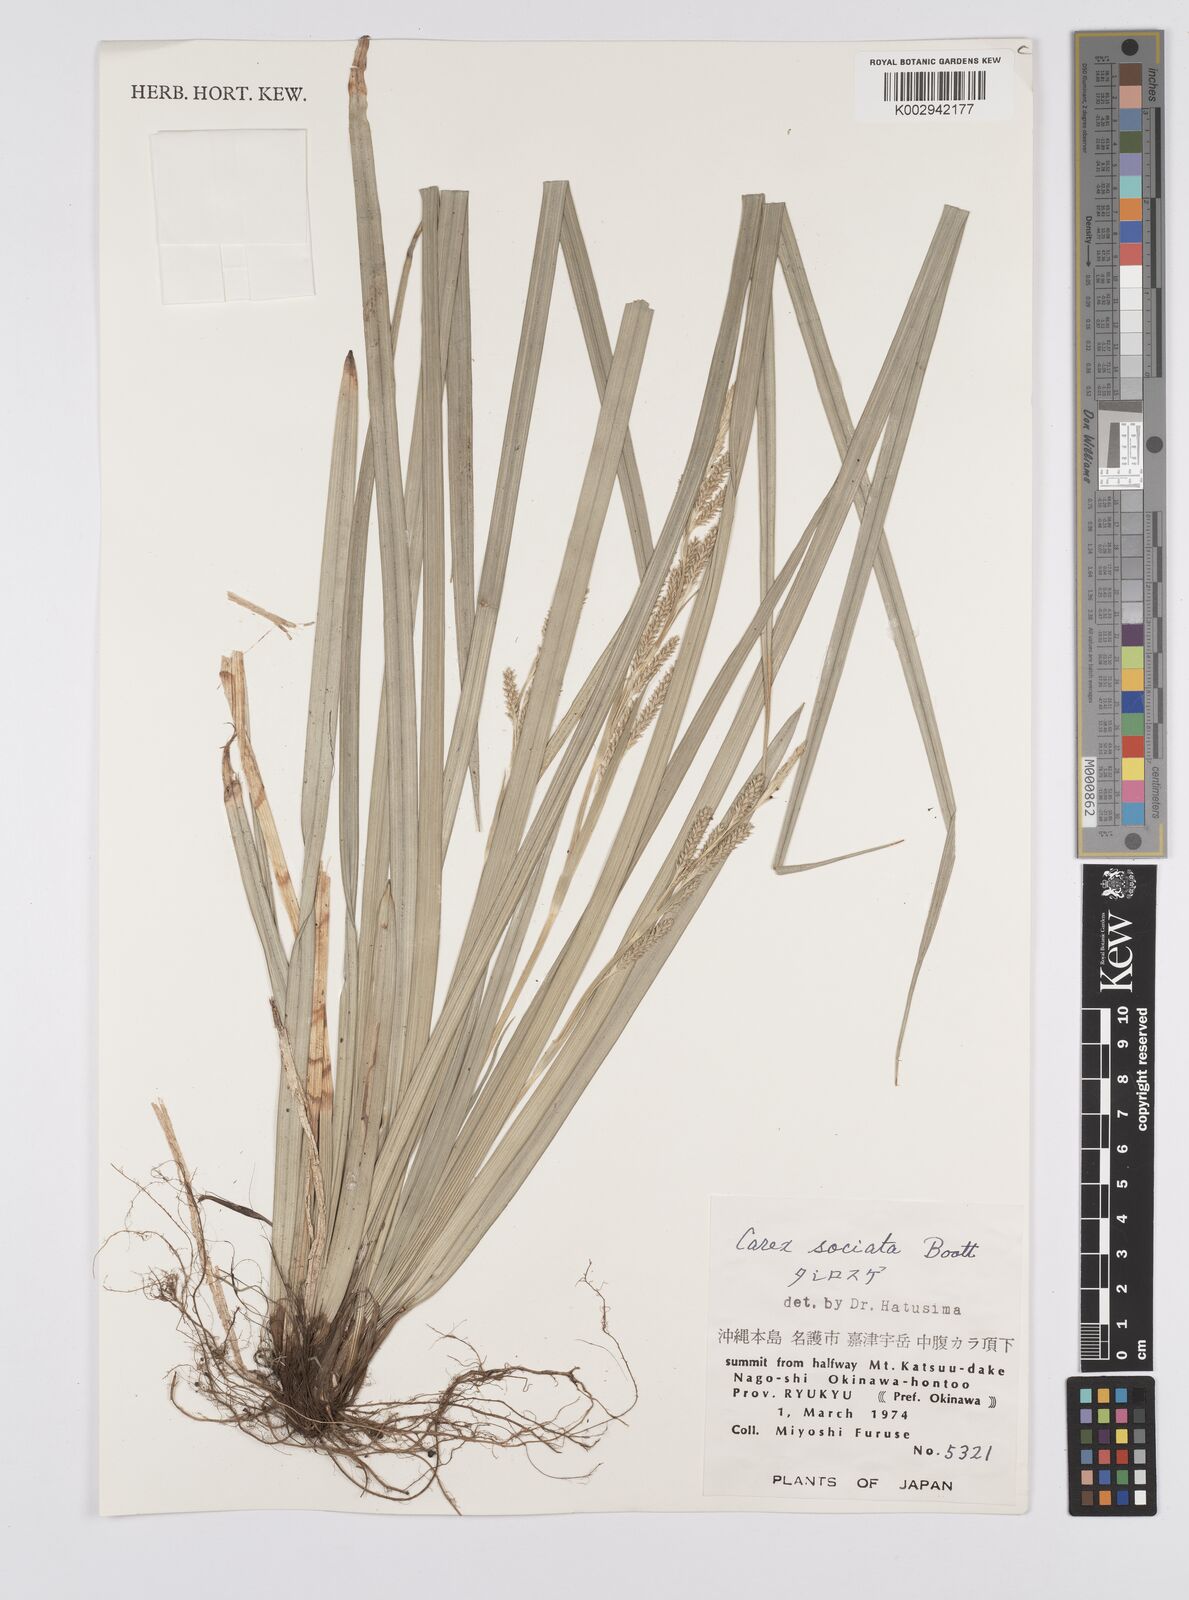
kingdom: Plantae
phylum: Tracheophyta
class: Liliopsida
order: Poales
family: Cyperaceae
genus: Carex
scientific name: Carex chinensis
